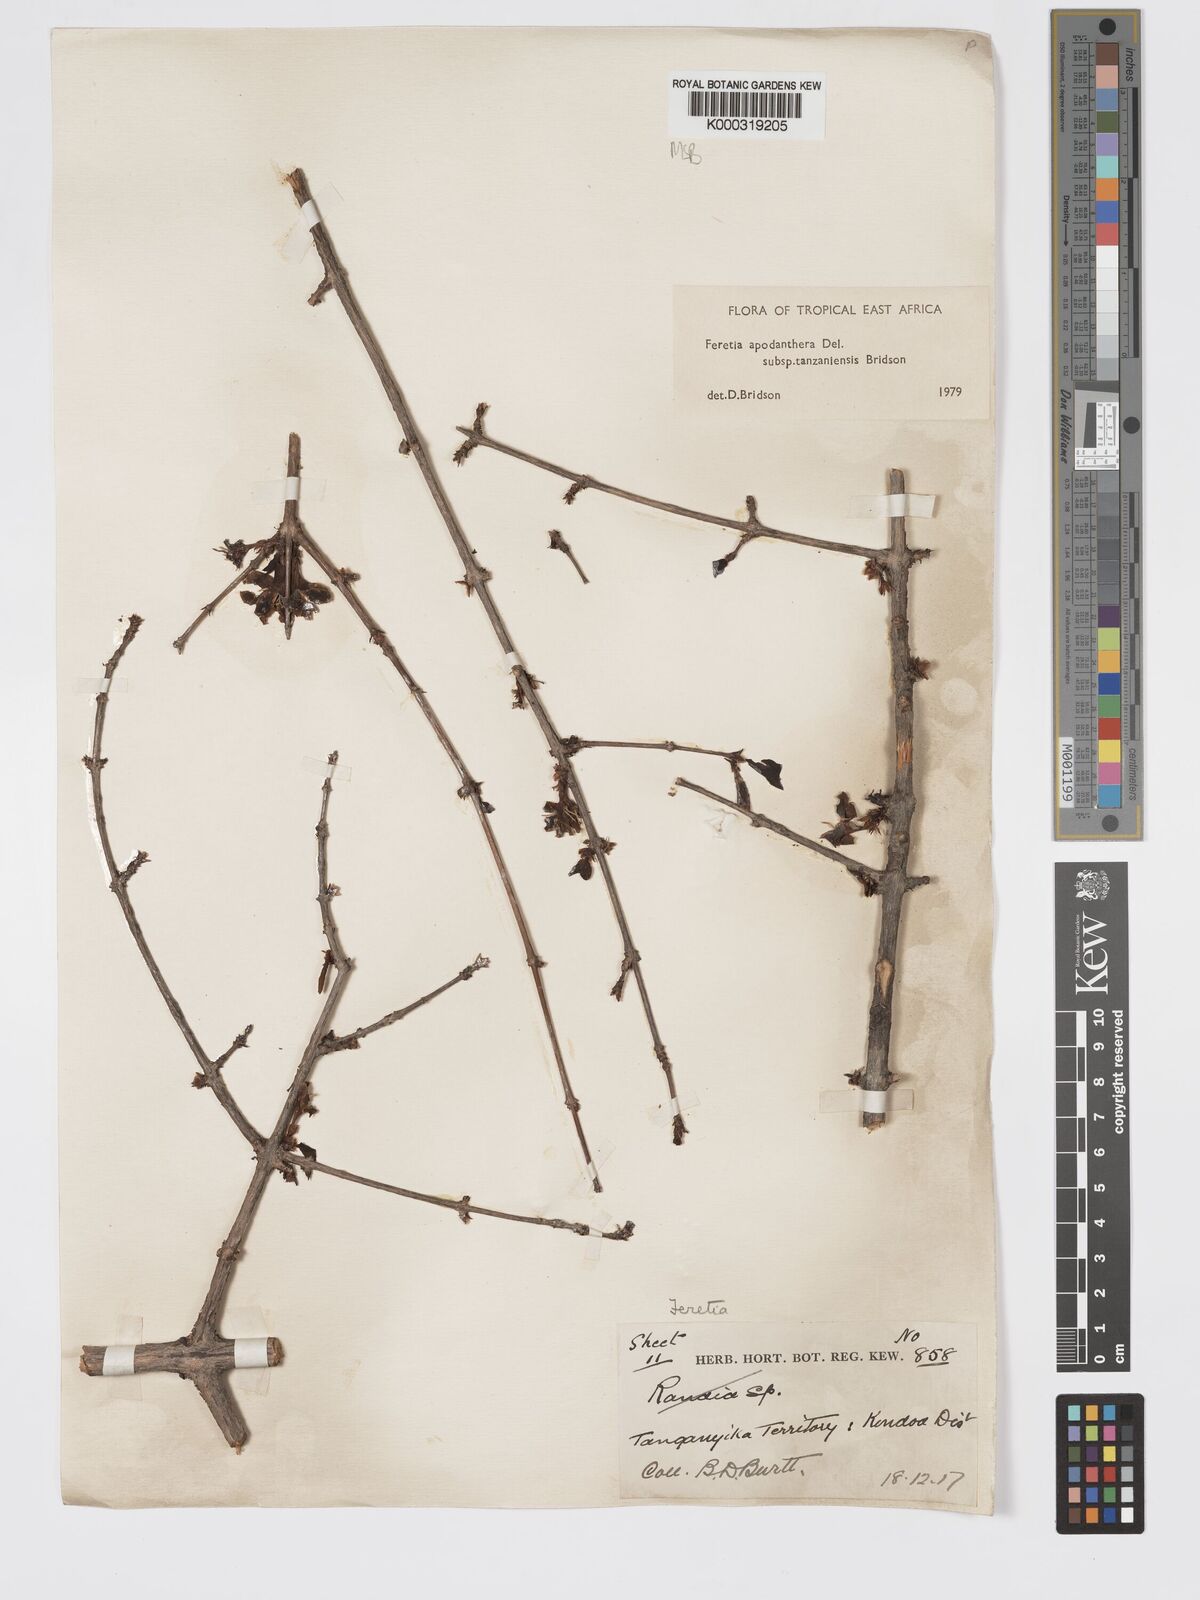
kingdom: Plantae
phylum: Tracheophyta
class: Magnoliopsida
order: Gentianales
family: Rubiaceae
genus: Feretia
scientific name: Feretia apodanthera
